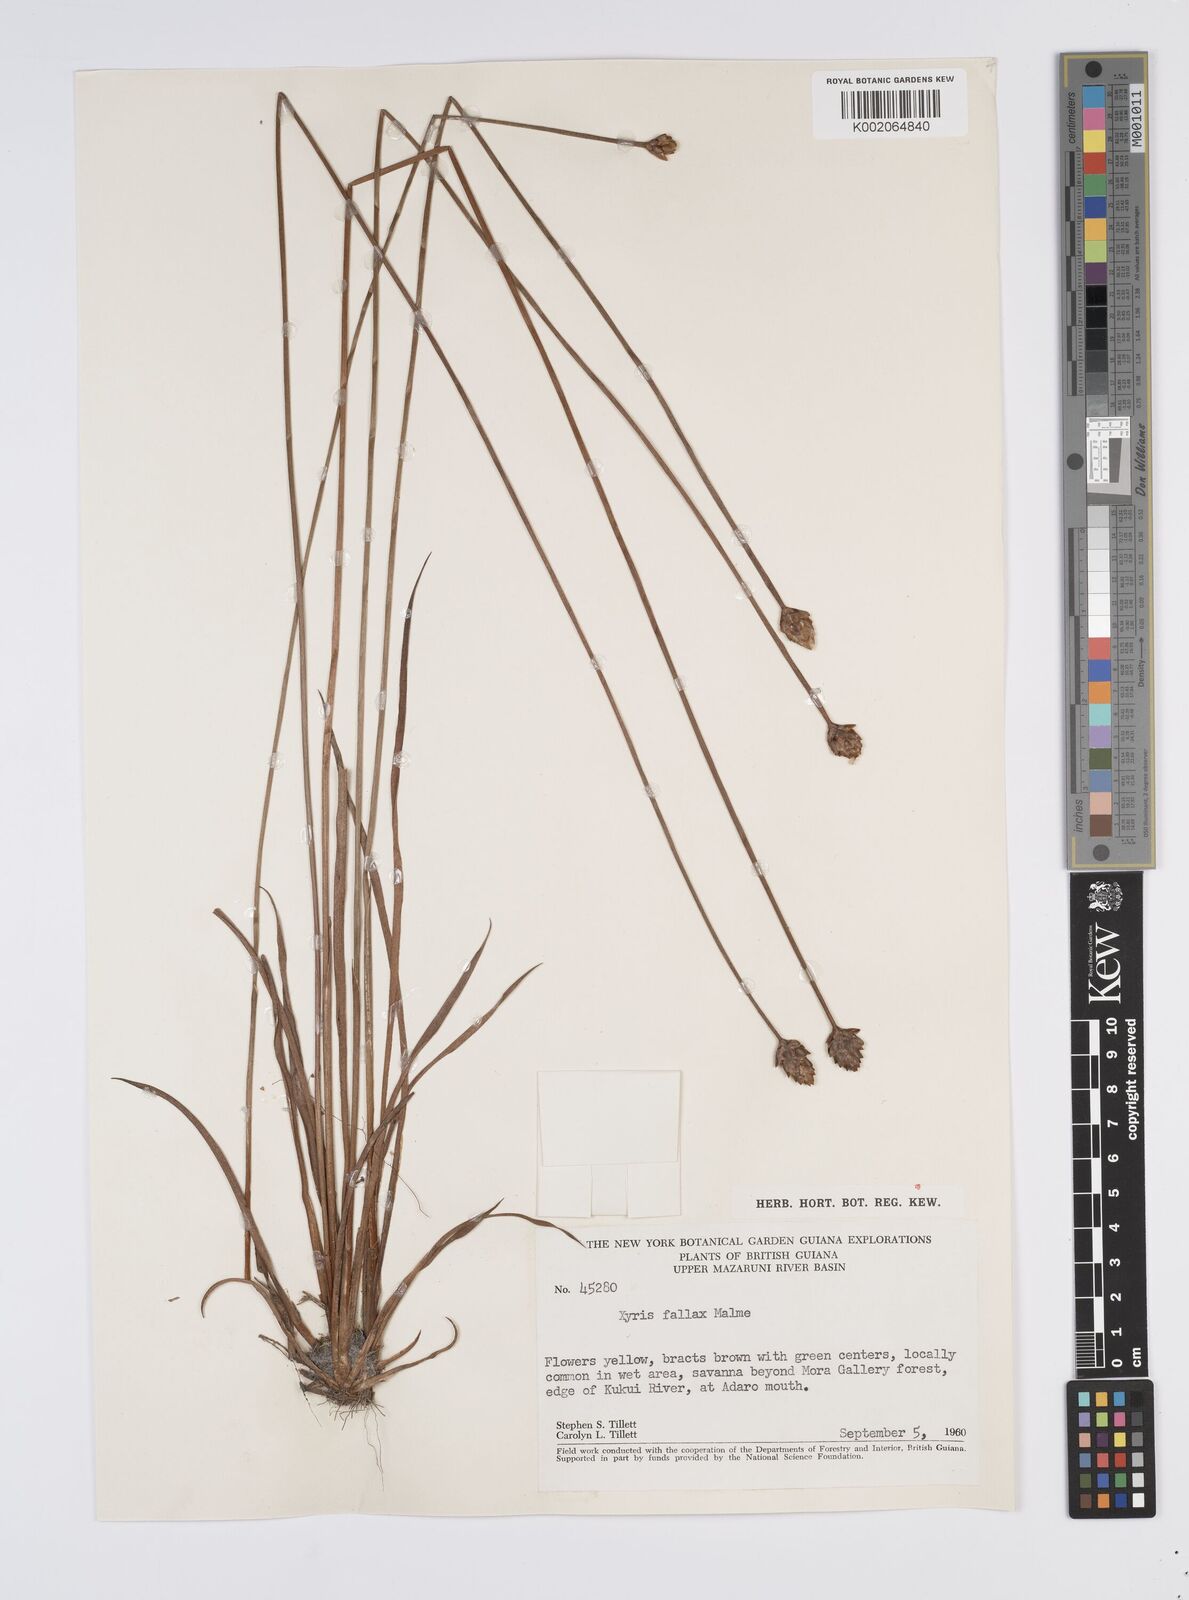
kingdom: Plantae
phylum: Tracheophyta
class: Liliopsida
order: Poales
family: Xyridaceae
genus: Xyris
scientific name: Xyris fallax
